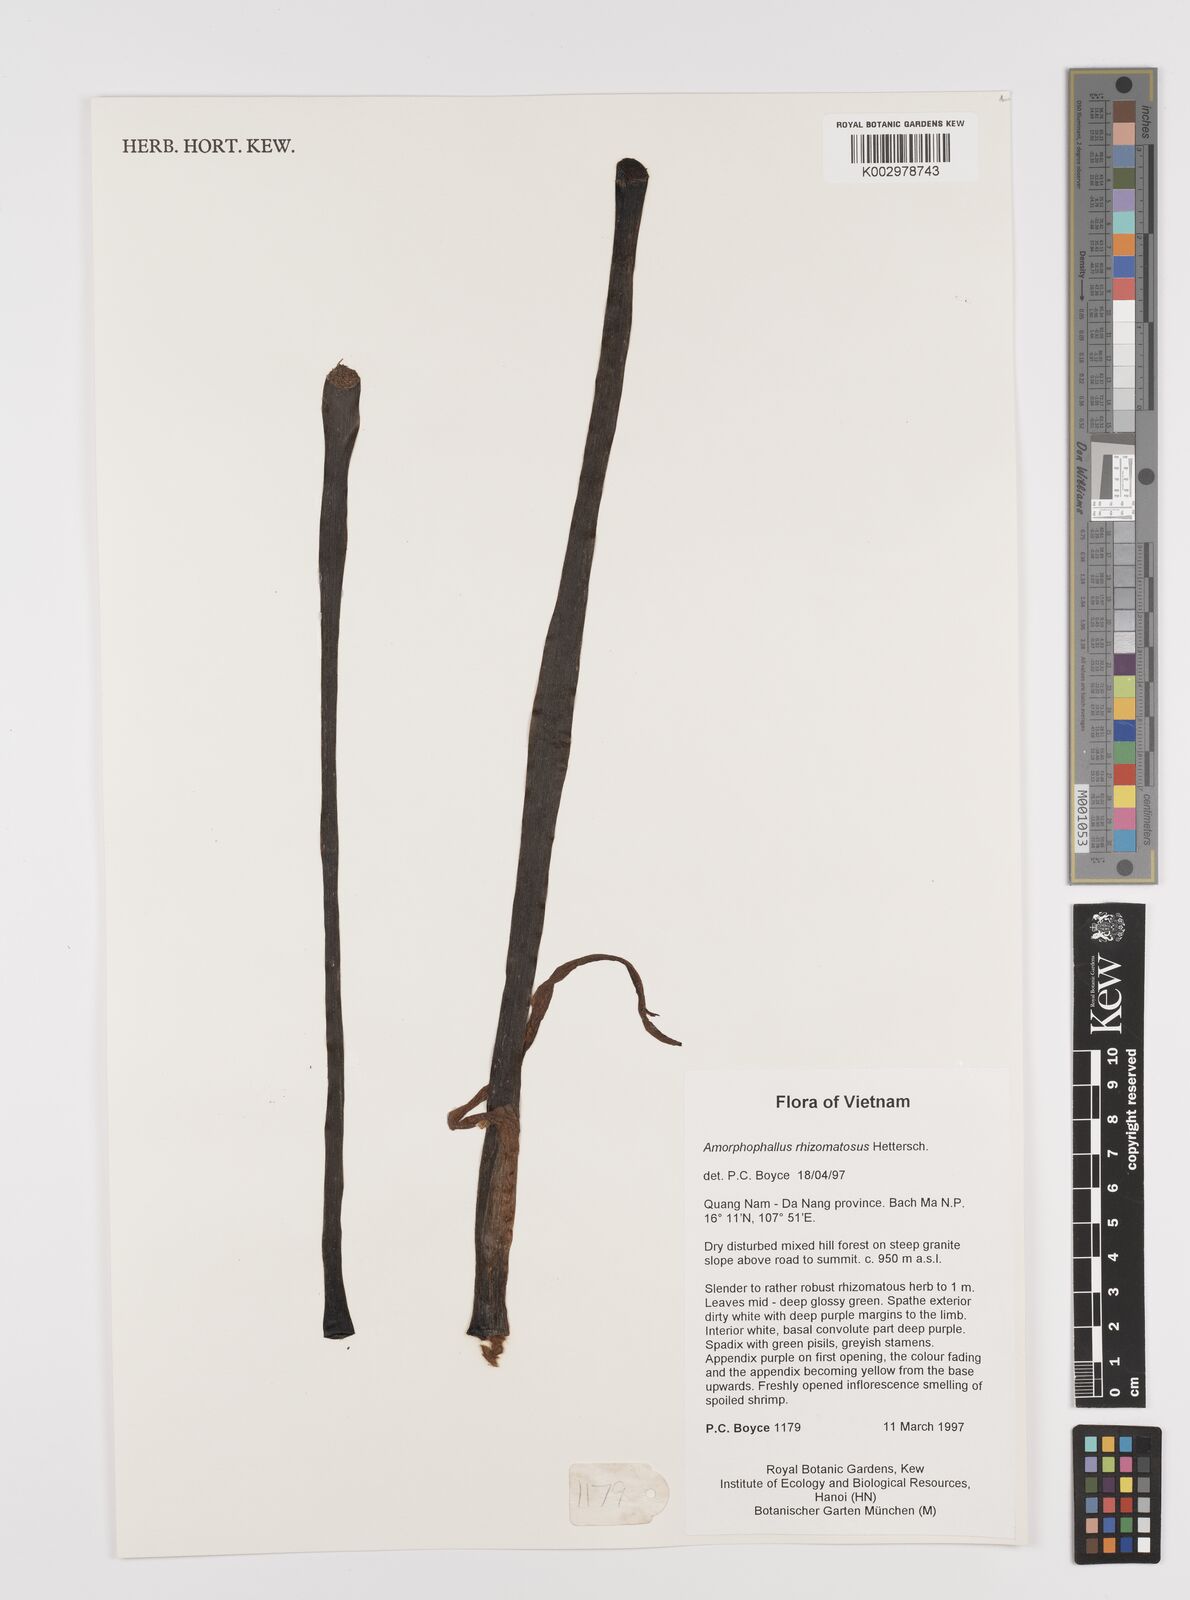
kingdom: Plantae
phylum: Tracheophyta
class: Liliopsida
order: Alismatales
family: Araceae
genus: Amorphophallus
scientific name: Amorphophallus rhizomatosus
